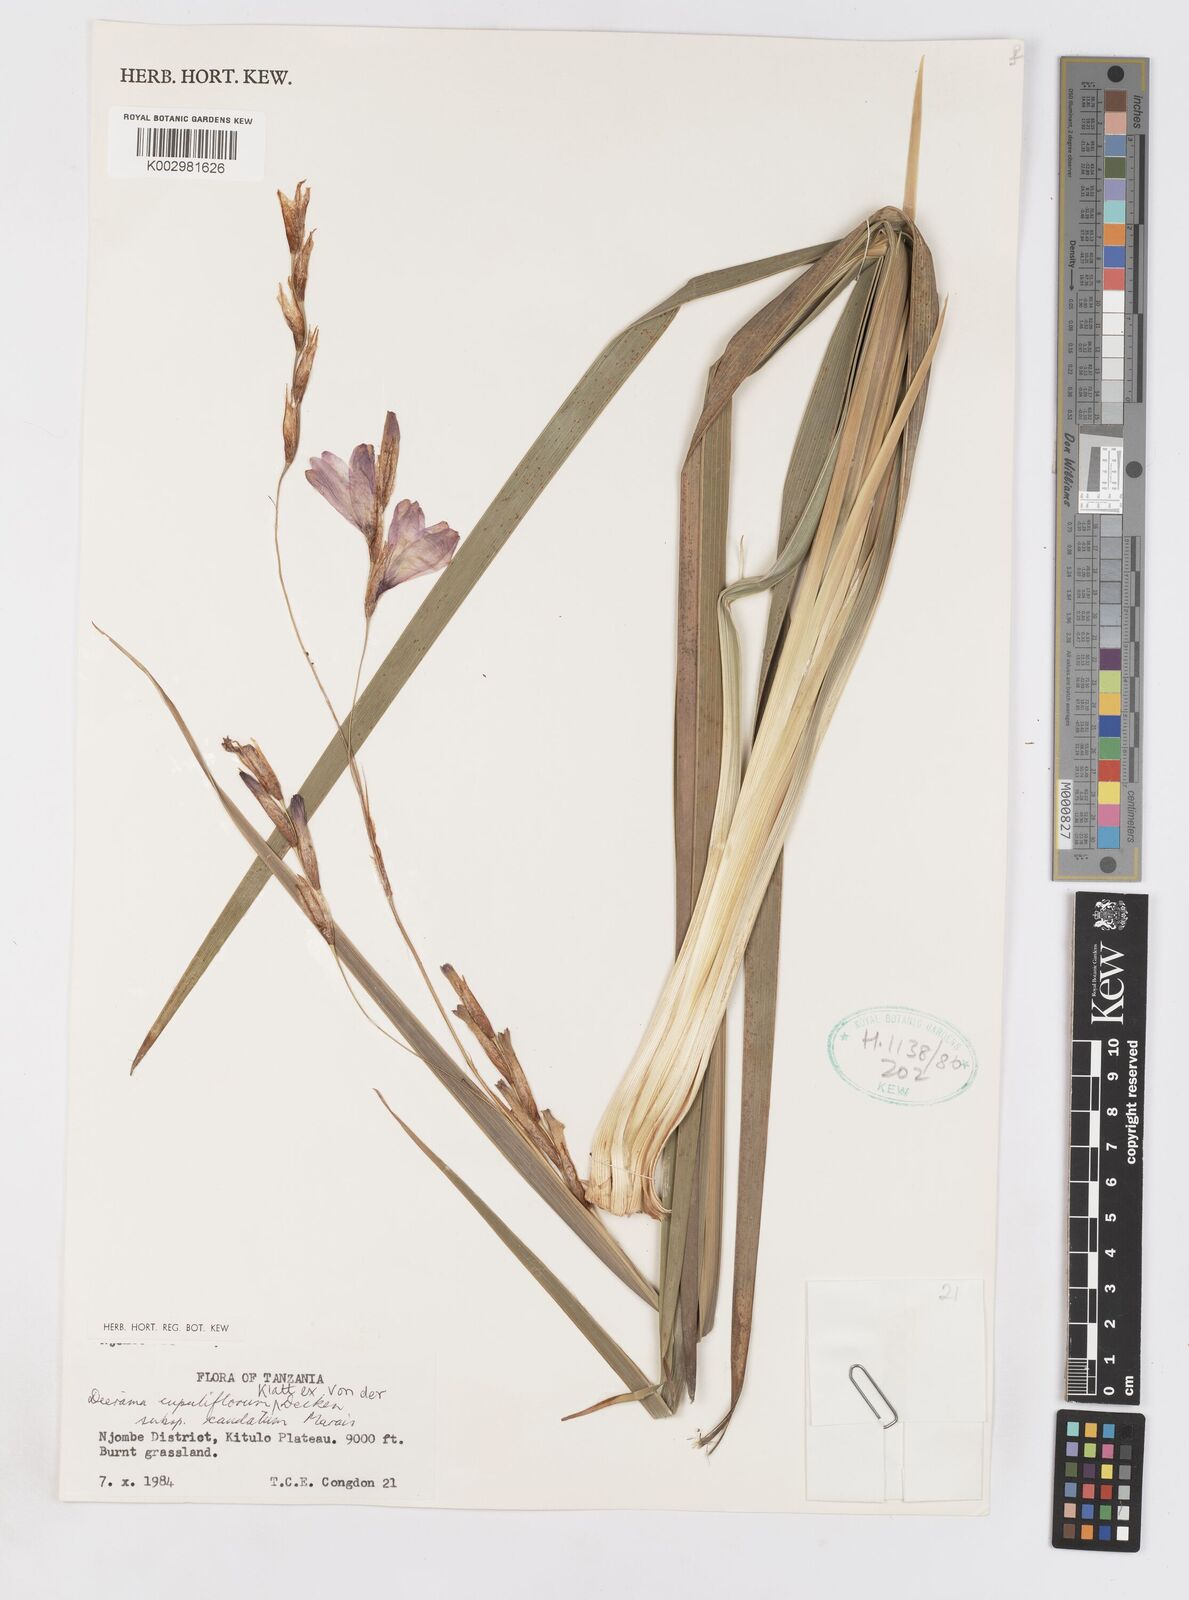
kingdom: Plantae
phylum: Tracheophyta
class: Liliopsida
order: Asparagales
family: Iridaceae
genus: Dierama
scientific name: Dierama cupuliflorum
